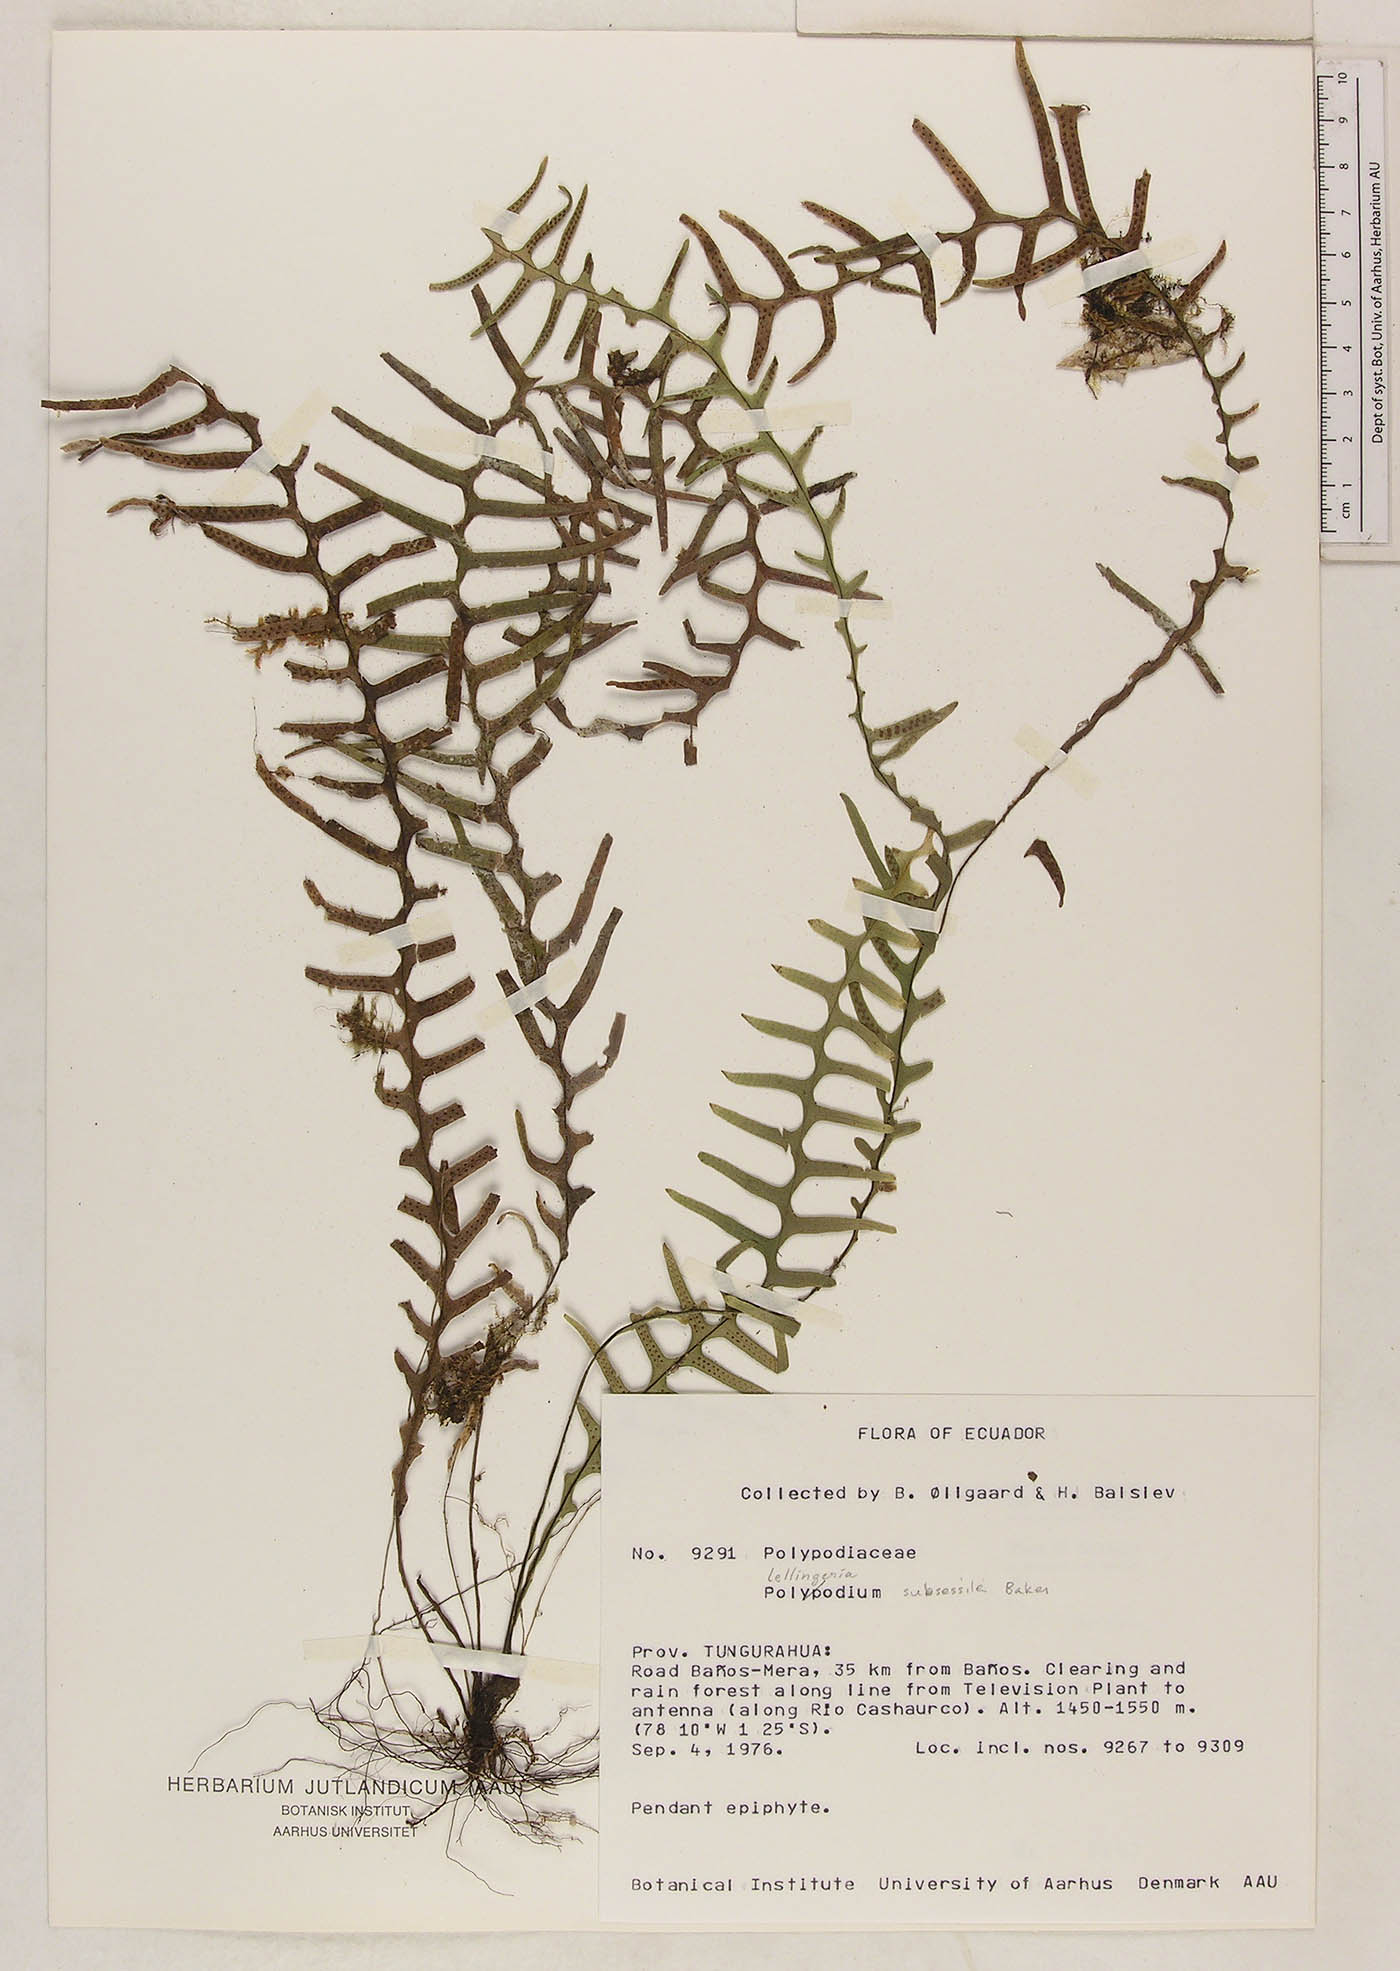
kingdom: Plantae
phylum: Tracheophyta
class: Polypodiopsida
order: Polypodiales
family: Polypodiaceae
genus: Lellingeria
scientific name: Lellingeria subsessilis
